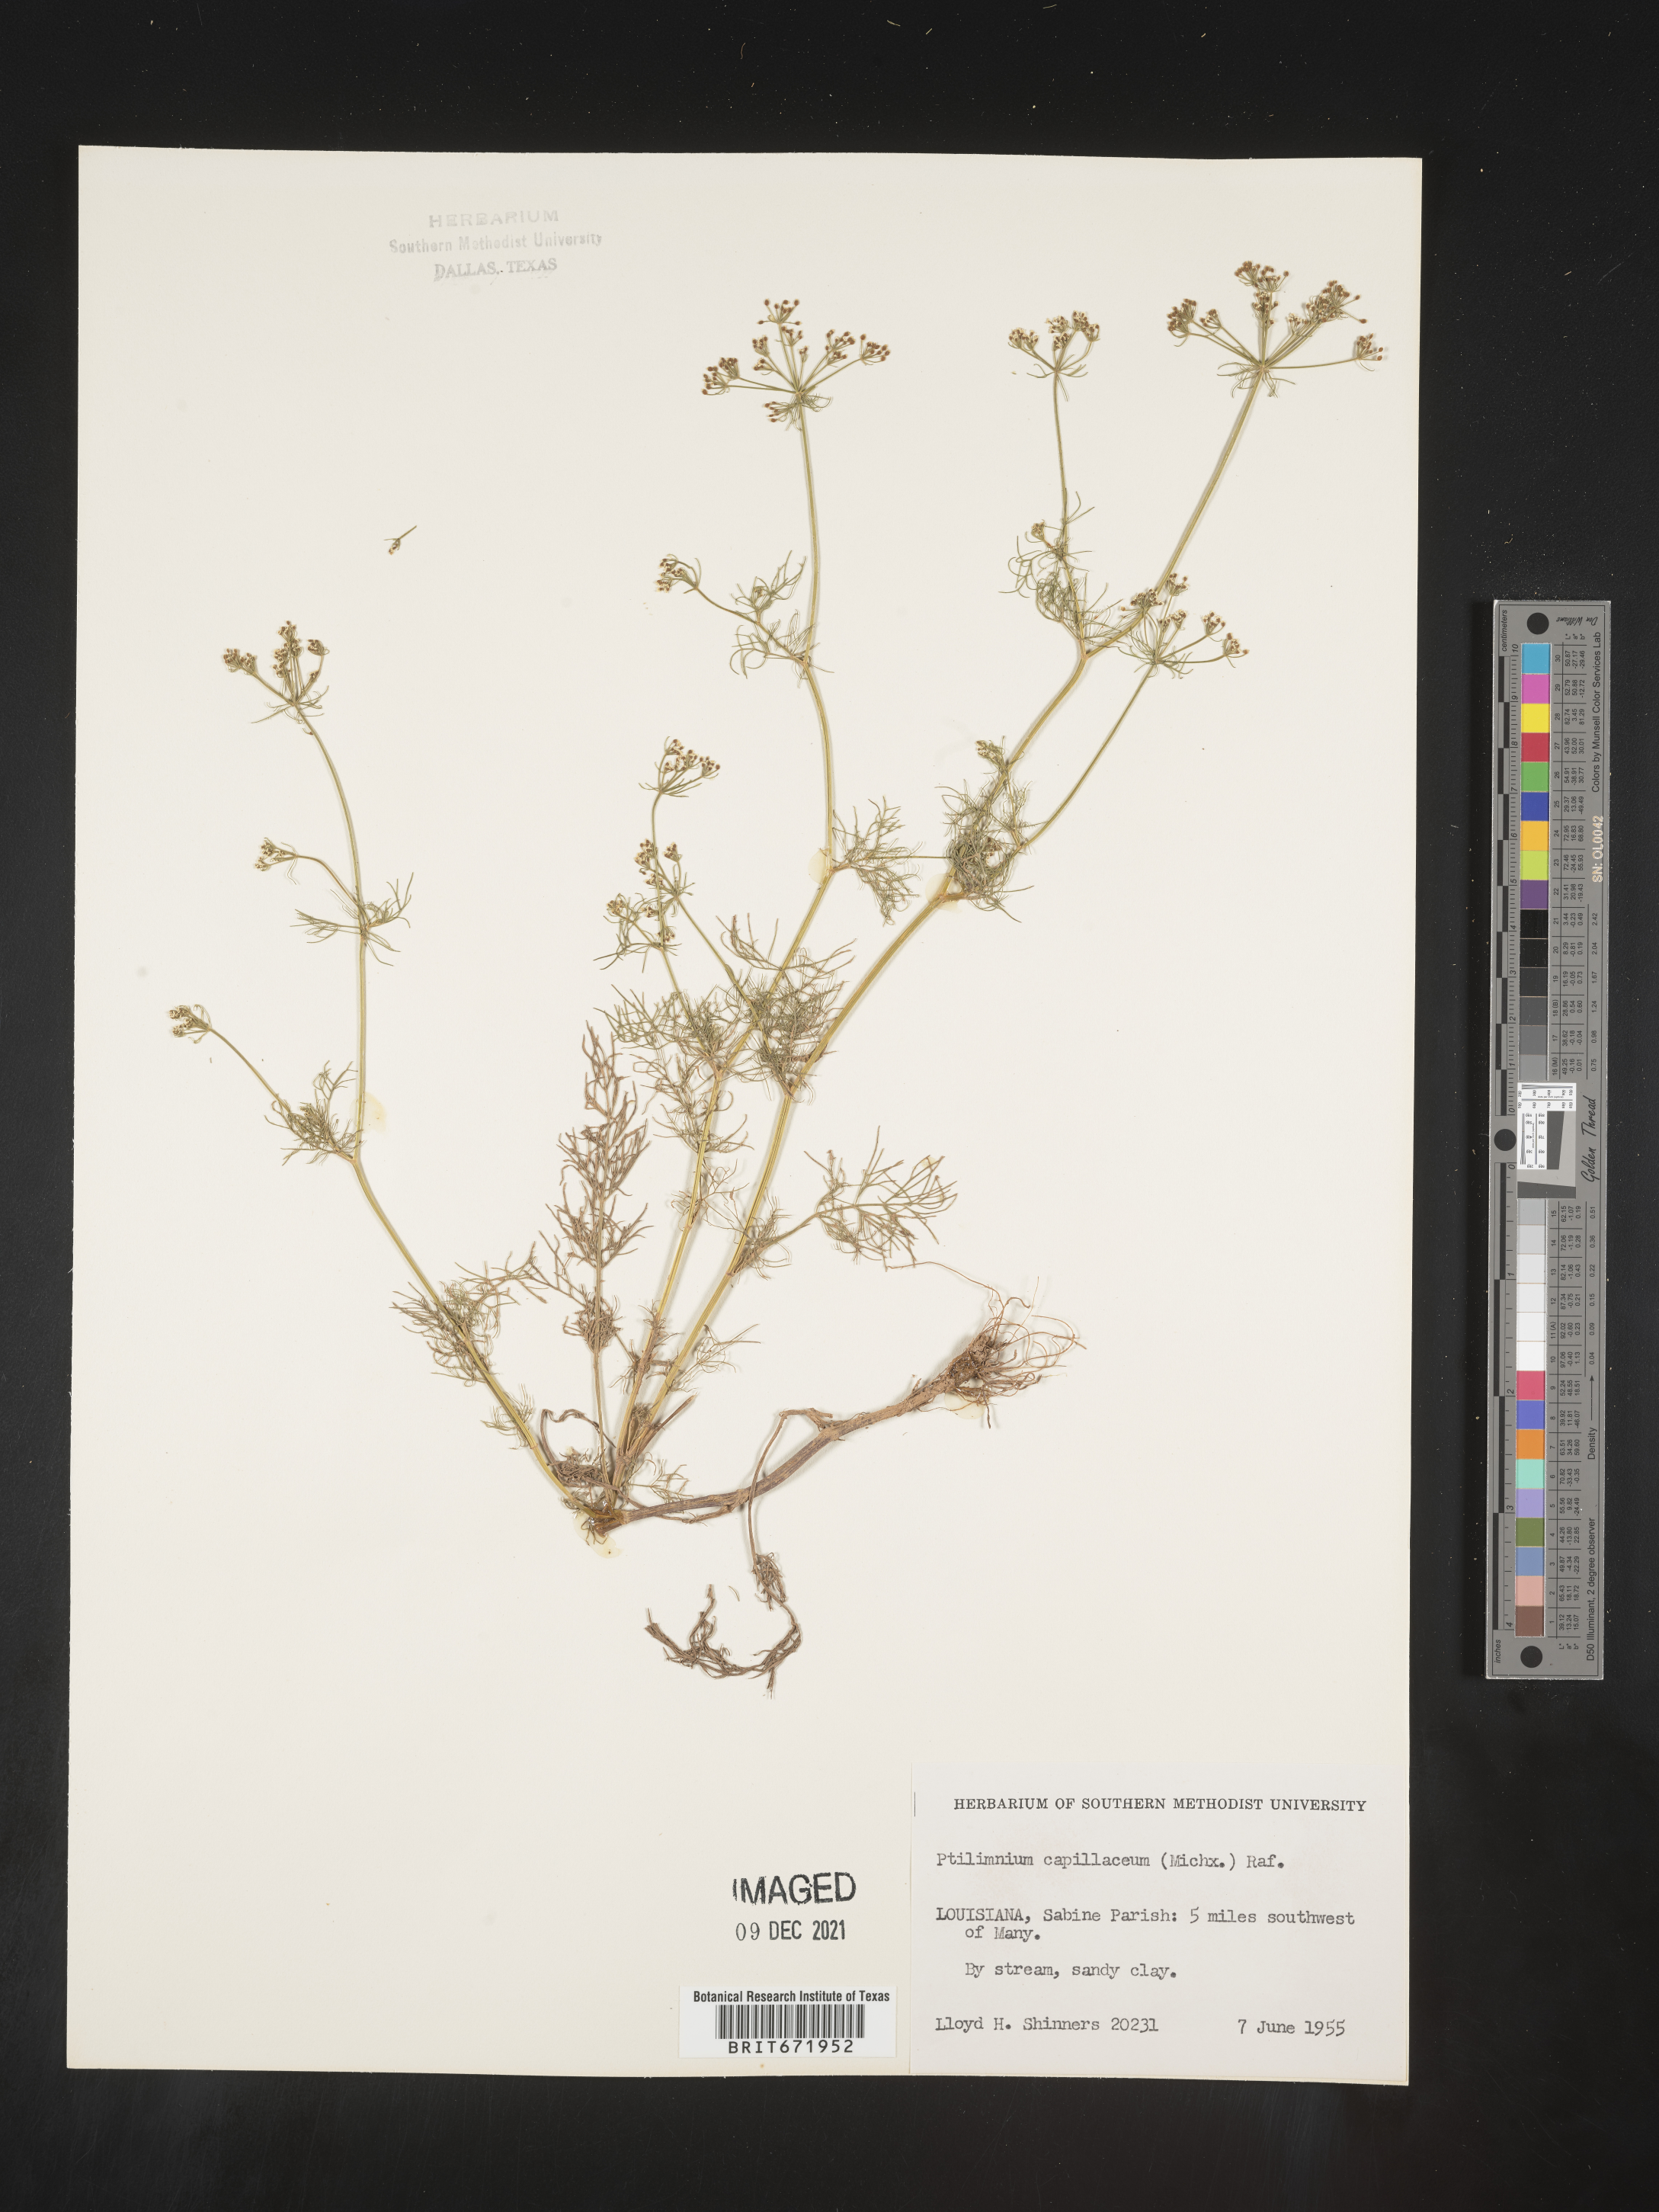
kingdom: Plantae
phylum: Tracheophyta
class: Magnoliopsida
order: Apiales
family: Apiaceae
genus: Ptilimnium
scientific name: Ptilimnium capillaceum
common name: Herbwilliam
